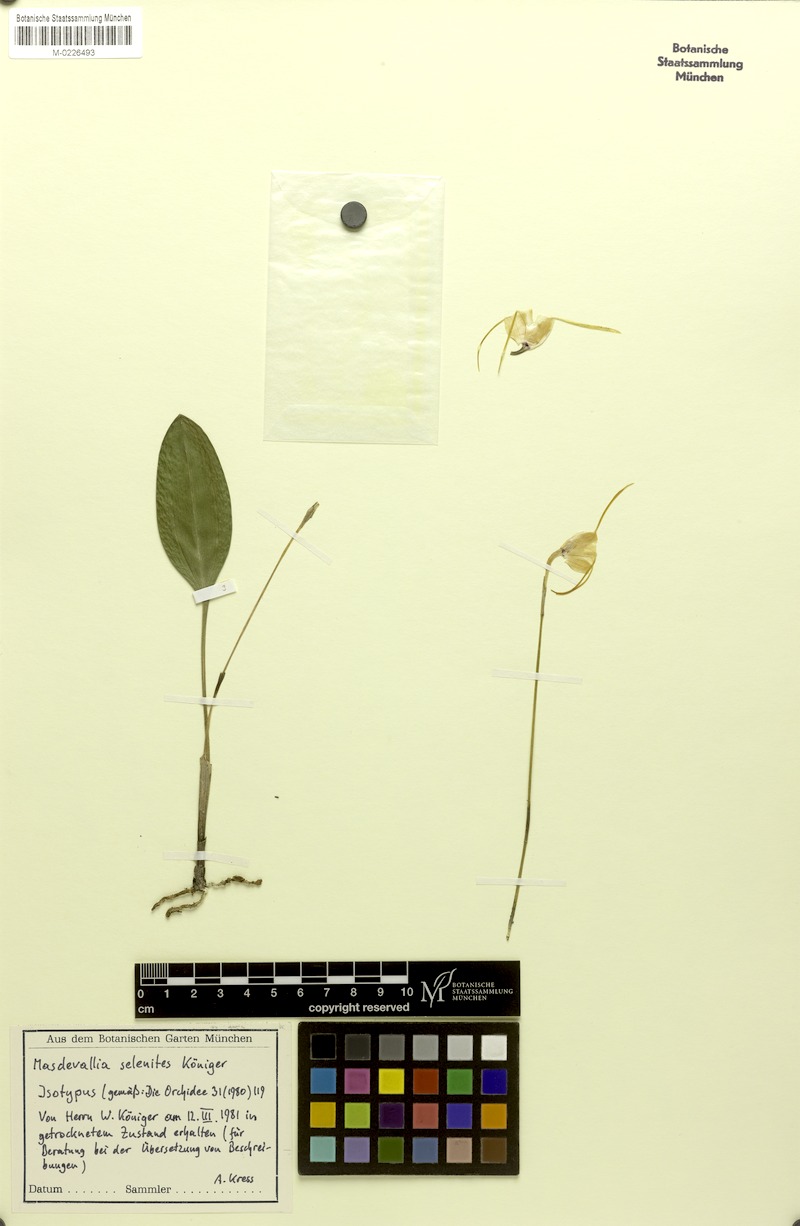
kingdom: Plantae
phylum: Tracheophyta
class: Liliopsida
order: Asparagales
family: Orchidaceae
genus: Masdevallia
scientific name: Masdevallia selenites
